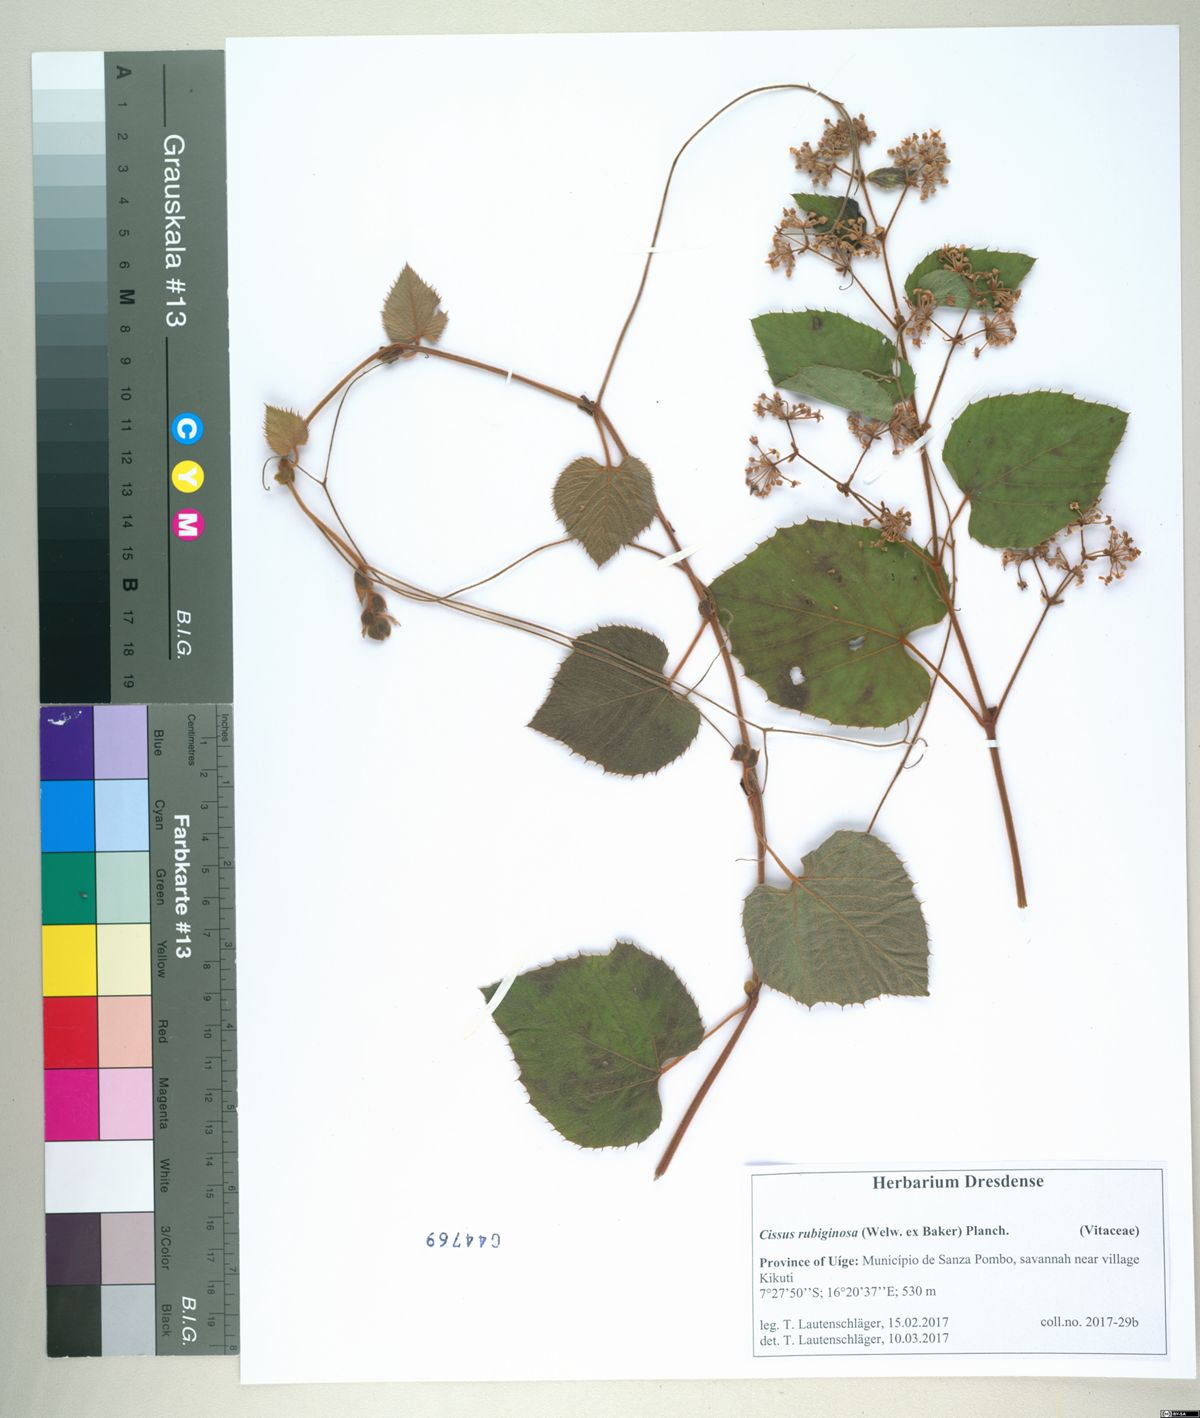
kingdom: Plantae
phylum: Tracheophyta
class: Magnoliopsida
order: Vitales
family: Vitaceae
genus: Cissus
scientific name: Cissus rubiginosa
